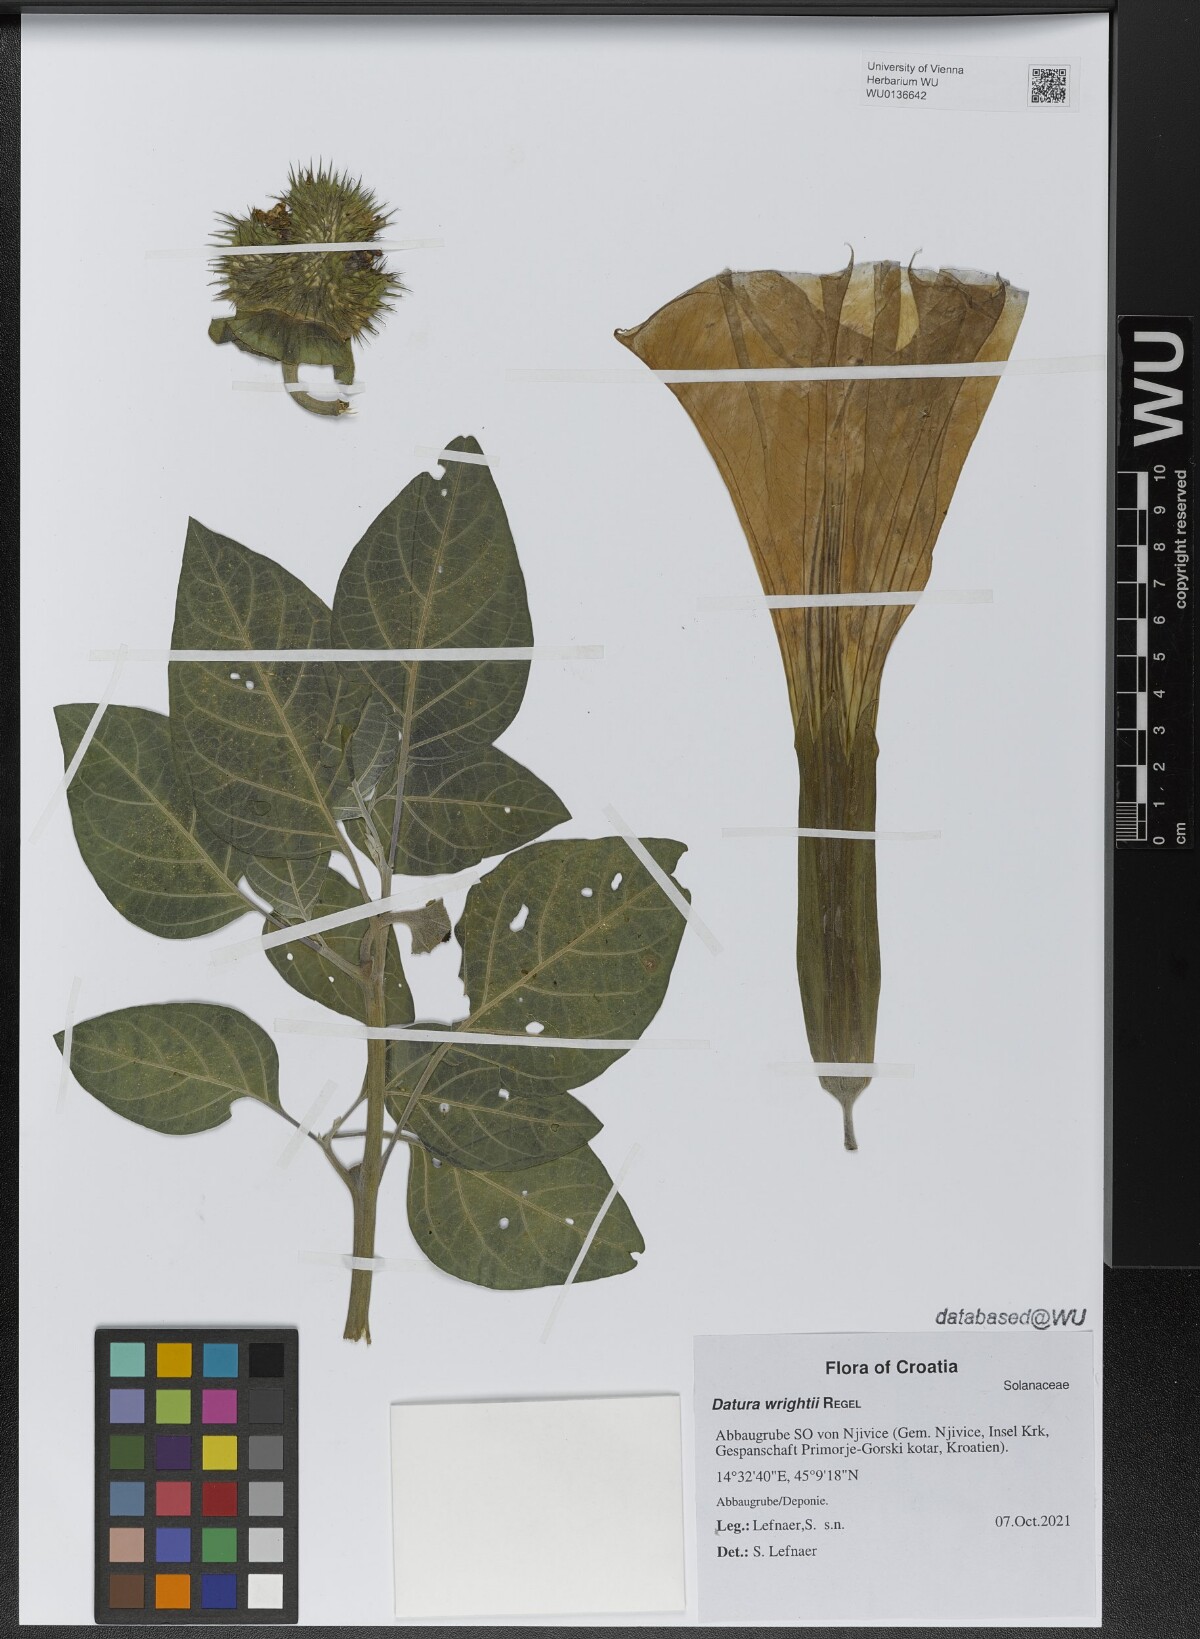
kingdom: Plantae
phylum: Tracheophyta
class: Magnoliopsida
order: Solanales
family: Solanaceae
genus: Datura
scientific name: Datura wrightii
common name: Sacred thorn-apple
